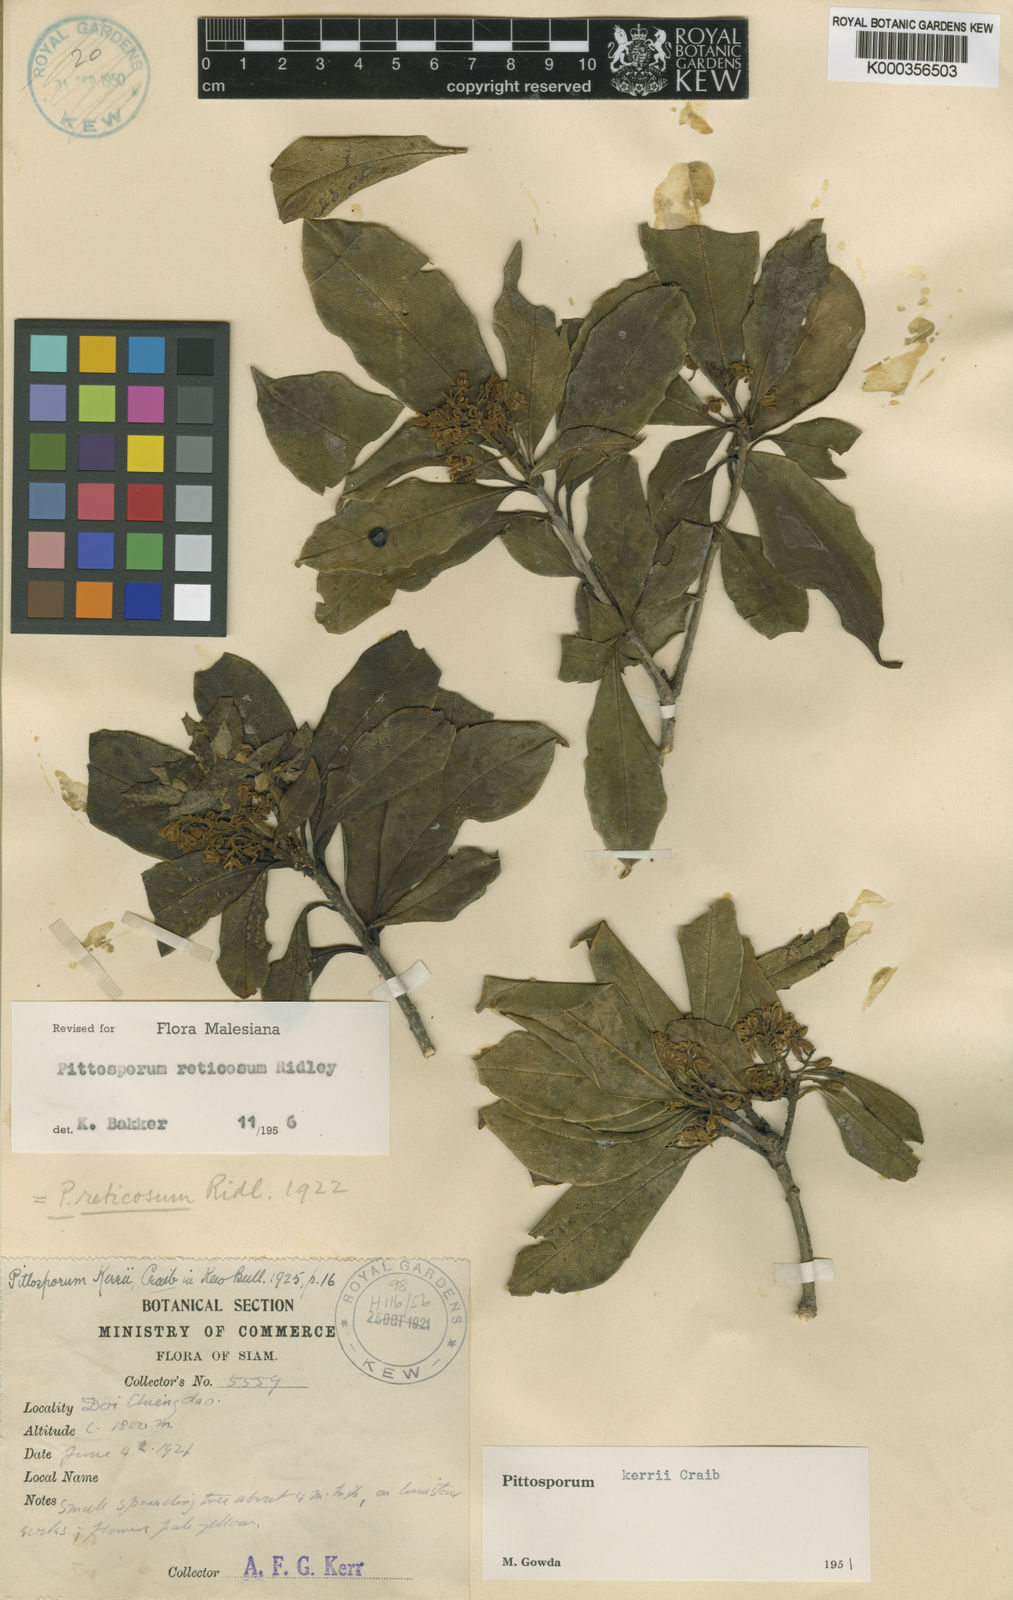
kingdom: Plantae
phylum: Tracheophyta
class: Magnoliopsida
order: Apiales
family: Pittosporaceae
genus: Pittosporum
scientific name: Pittosporum reticosum
